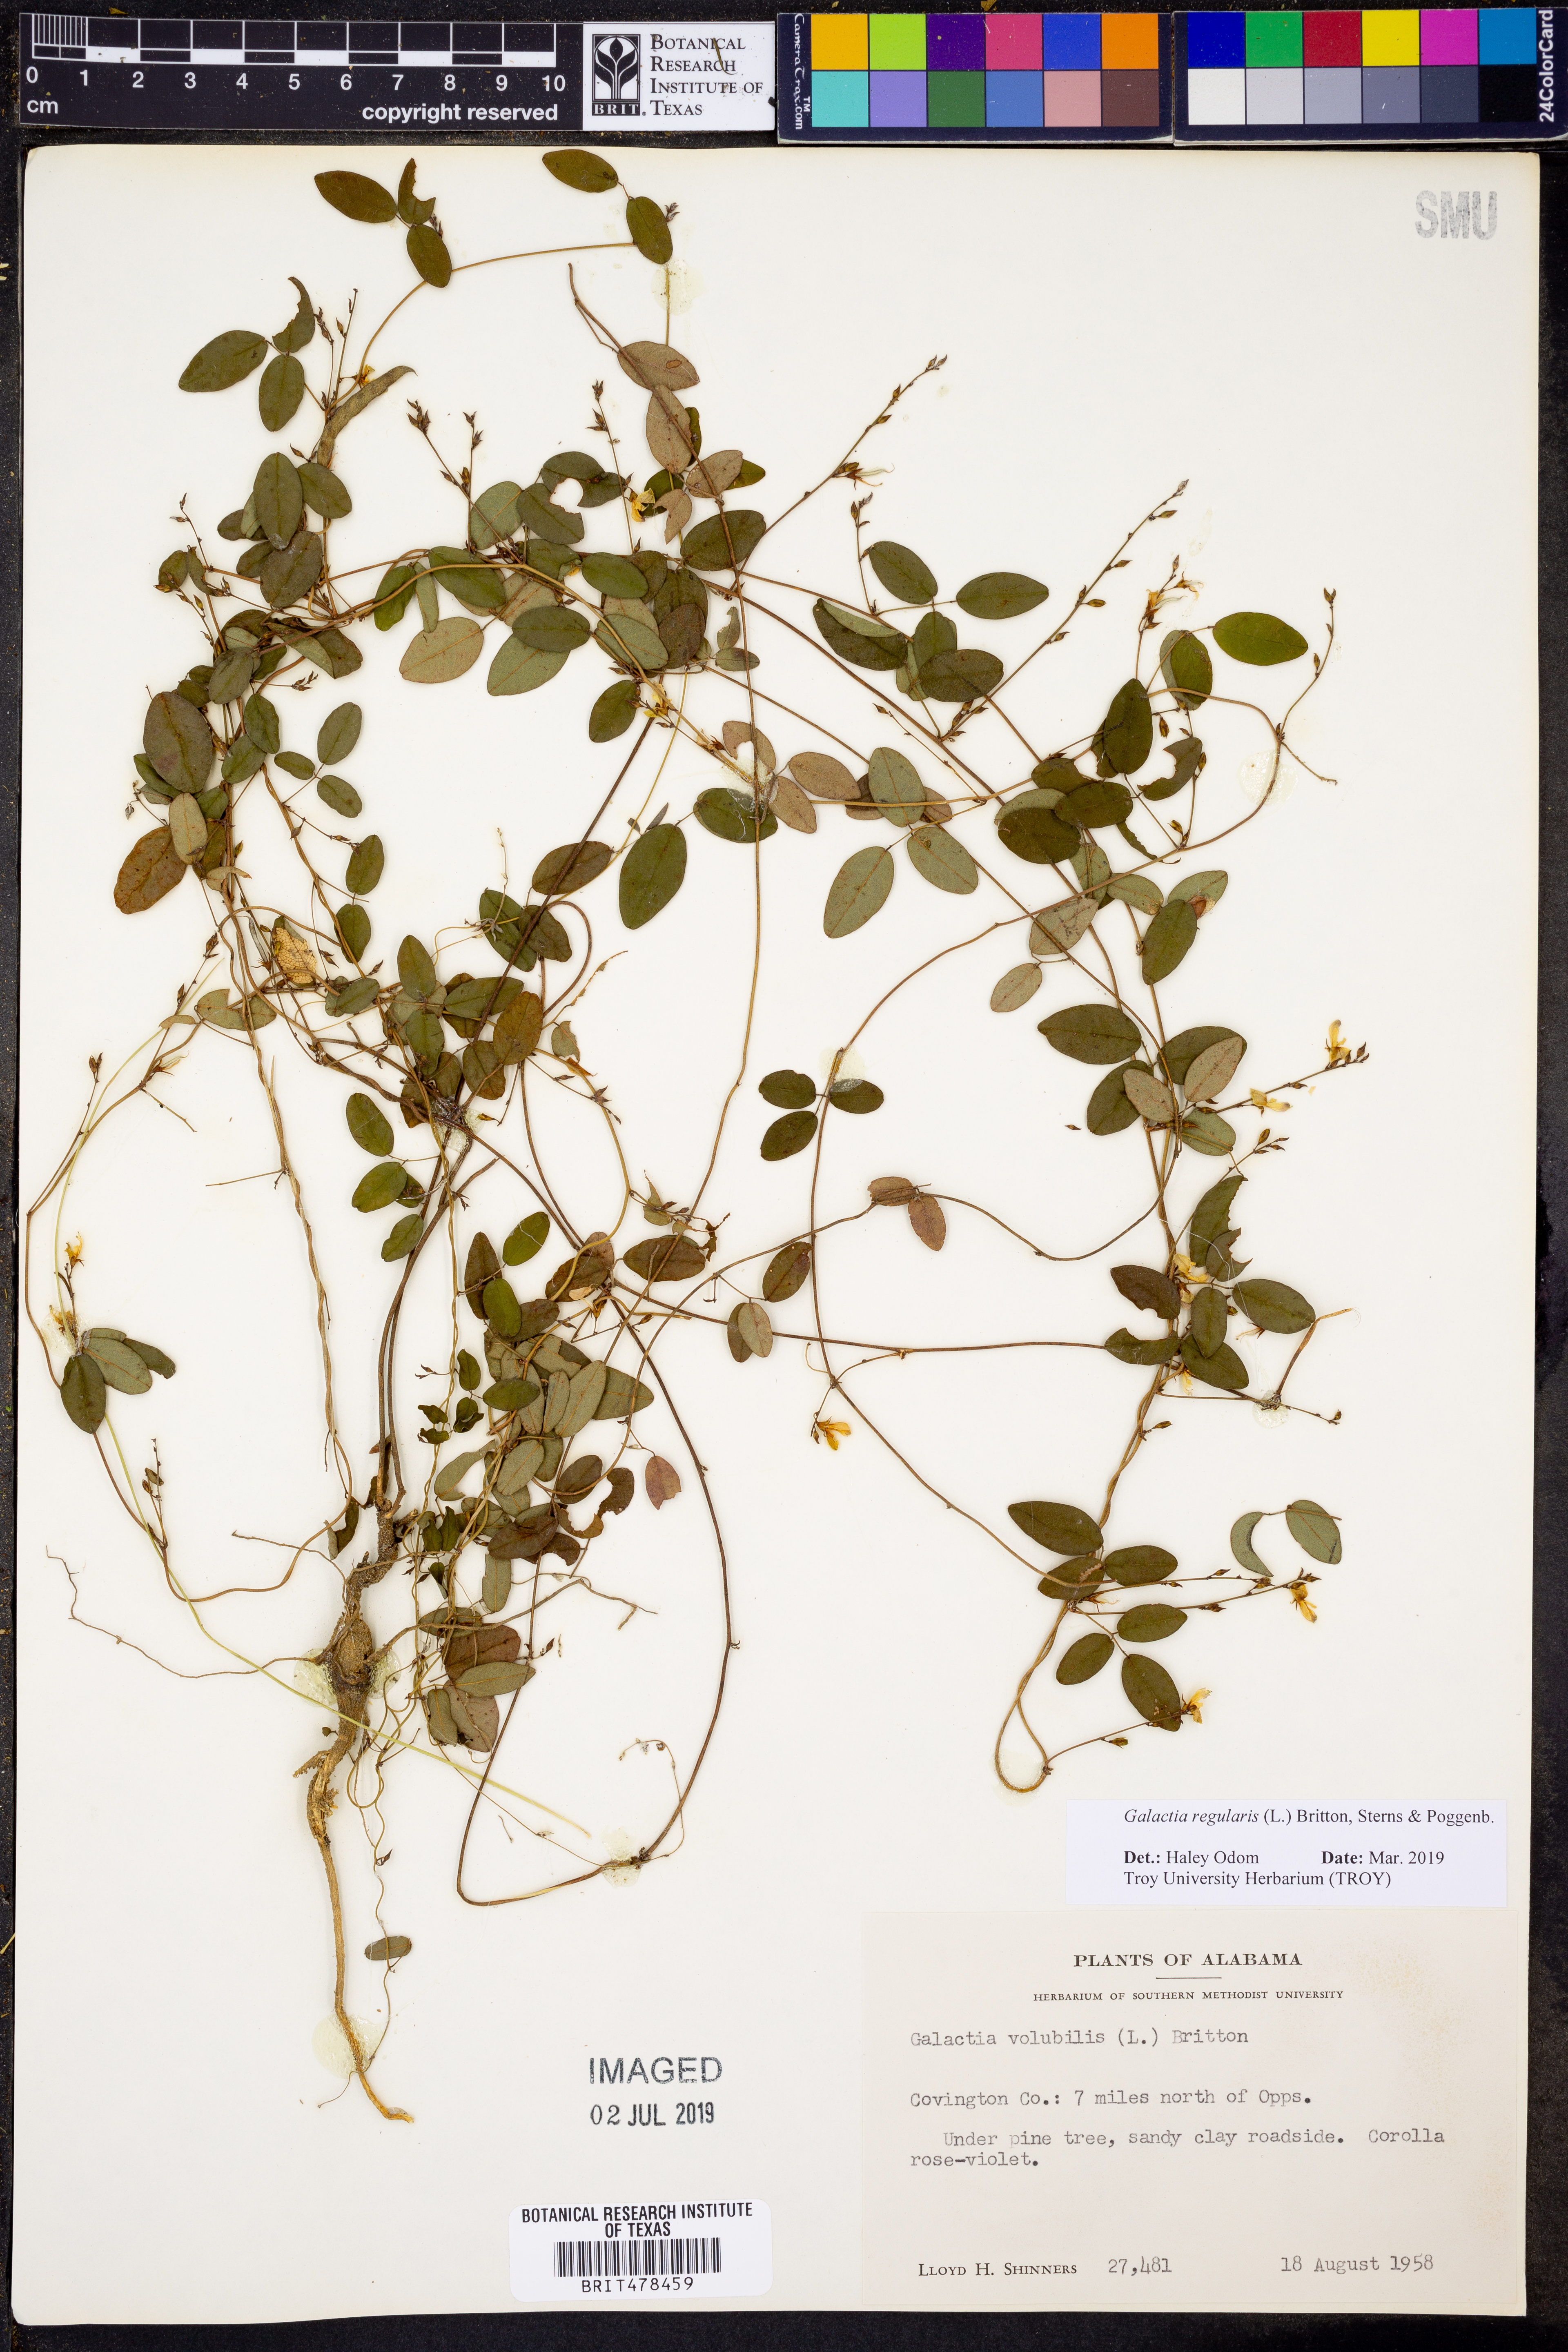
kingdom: Plantae
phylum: Tracheophyta
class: Magnoliopsida
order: Fabales
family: Fabaceae
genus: Galactia
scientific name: Galactia regularis
